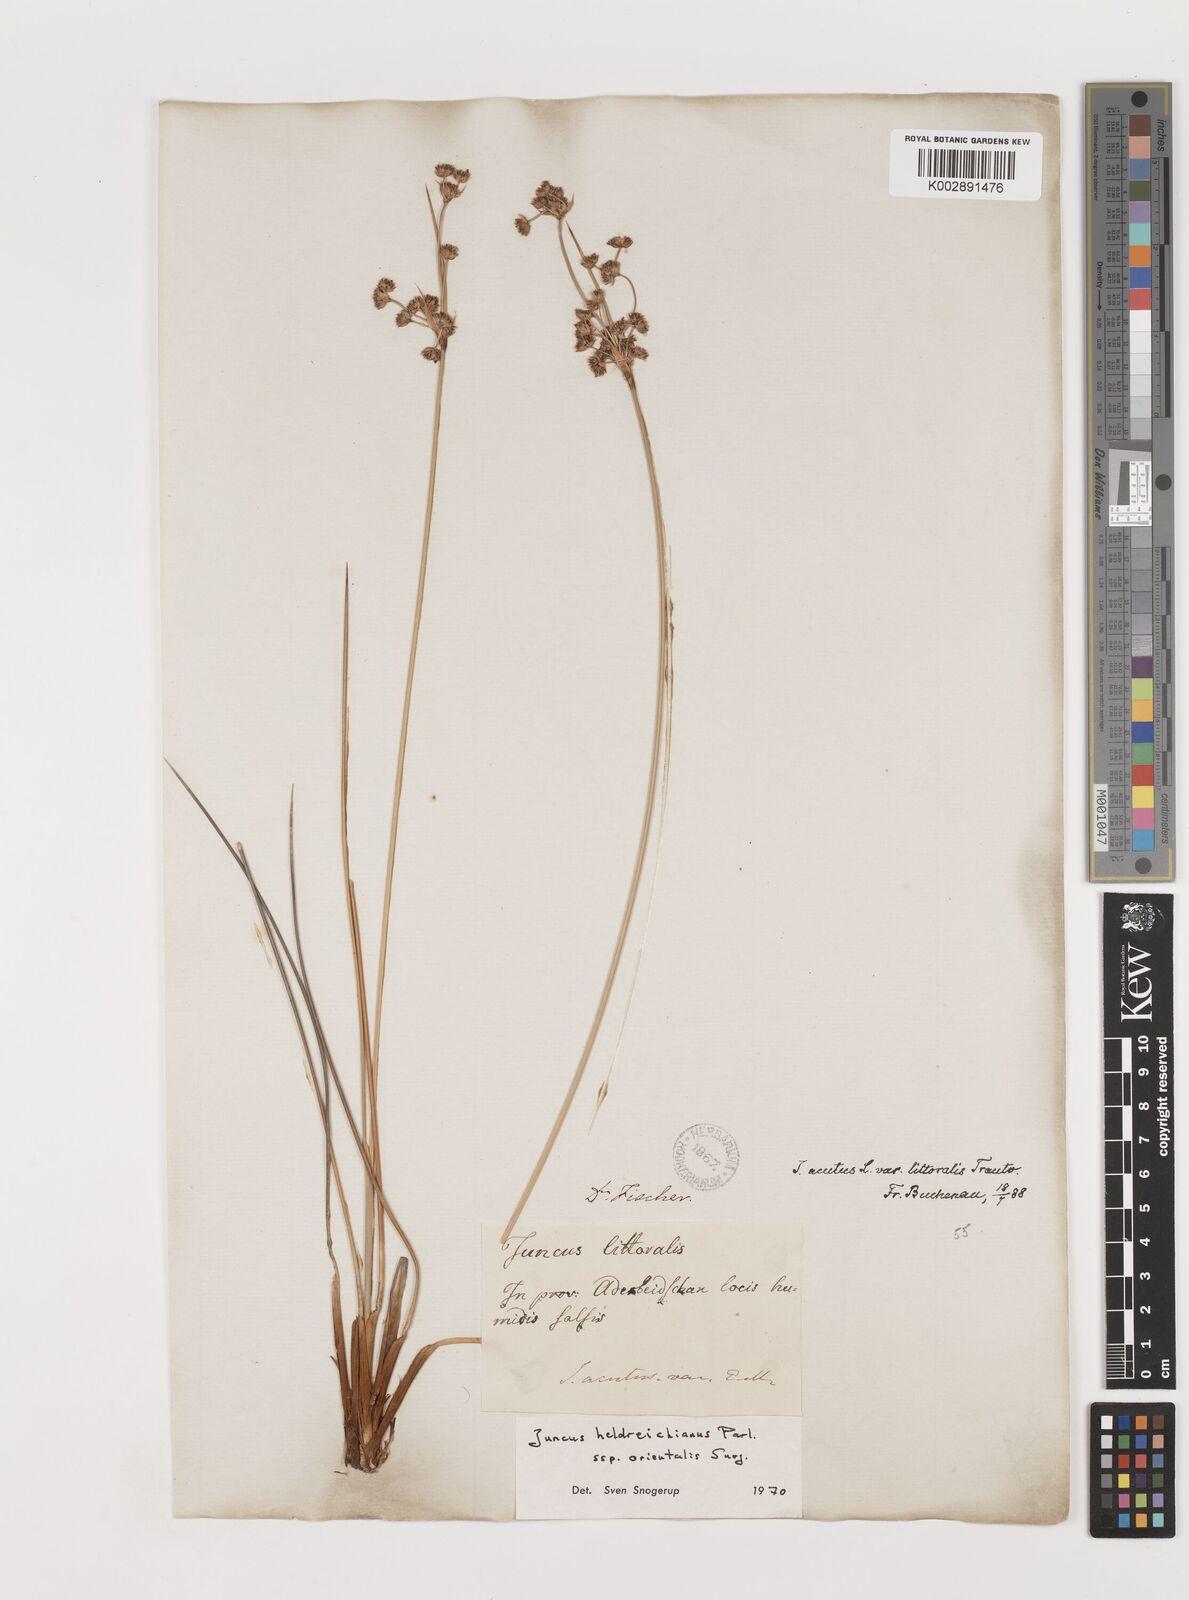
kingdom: Plantae
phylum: Tracheophyta
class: Liliopsida
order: Poales
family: Juncaceae
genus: Juncus
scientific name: Juncus heldreichianus
